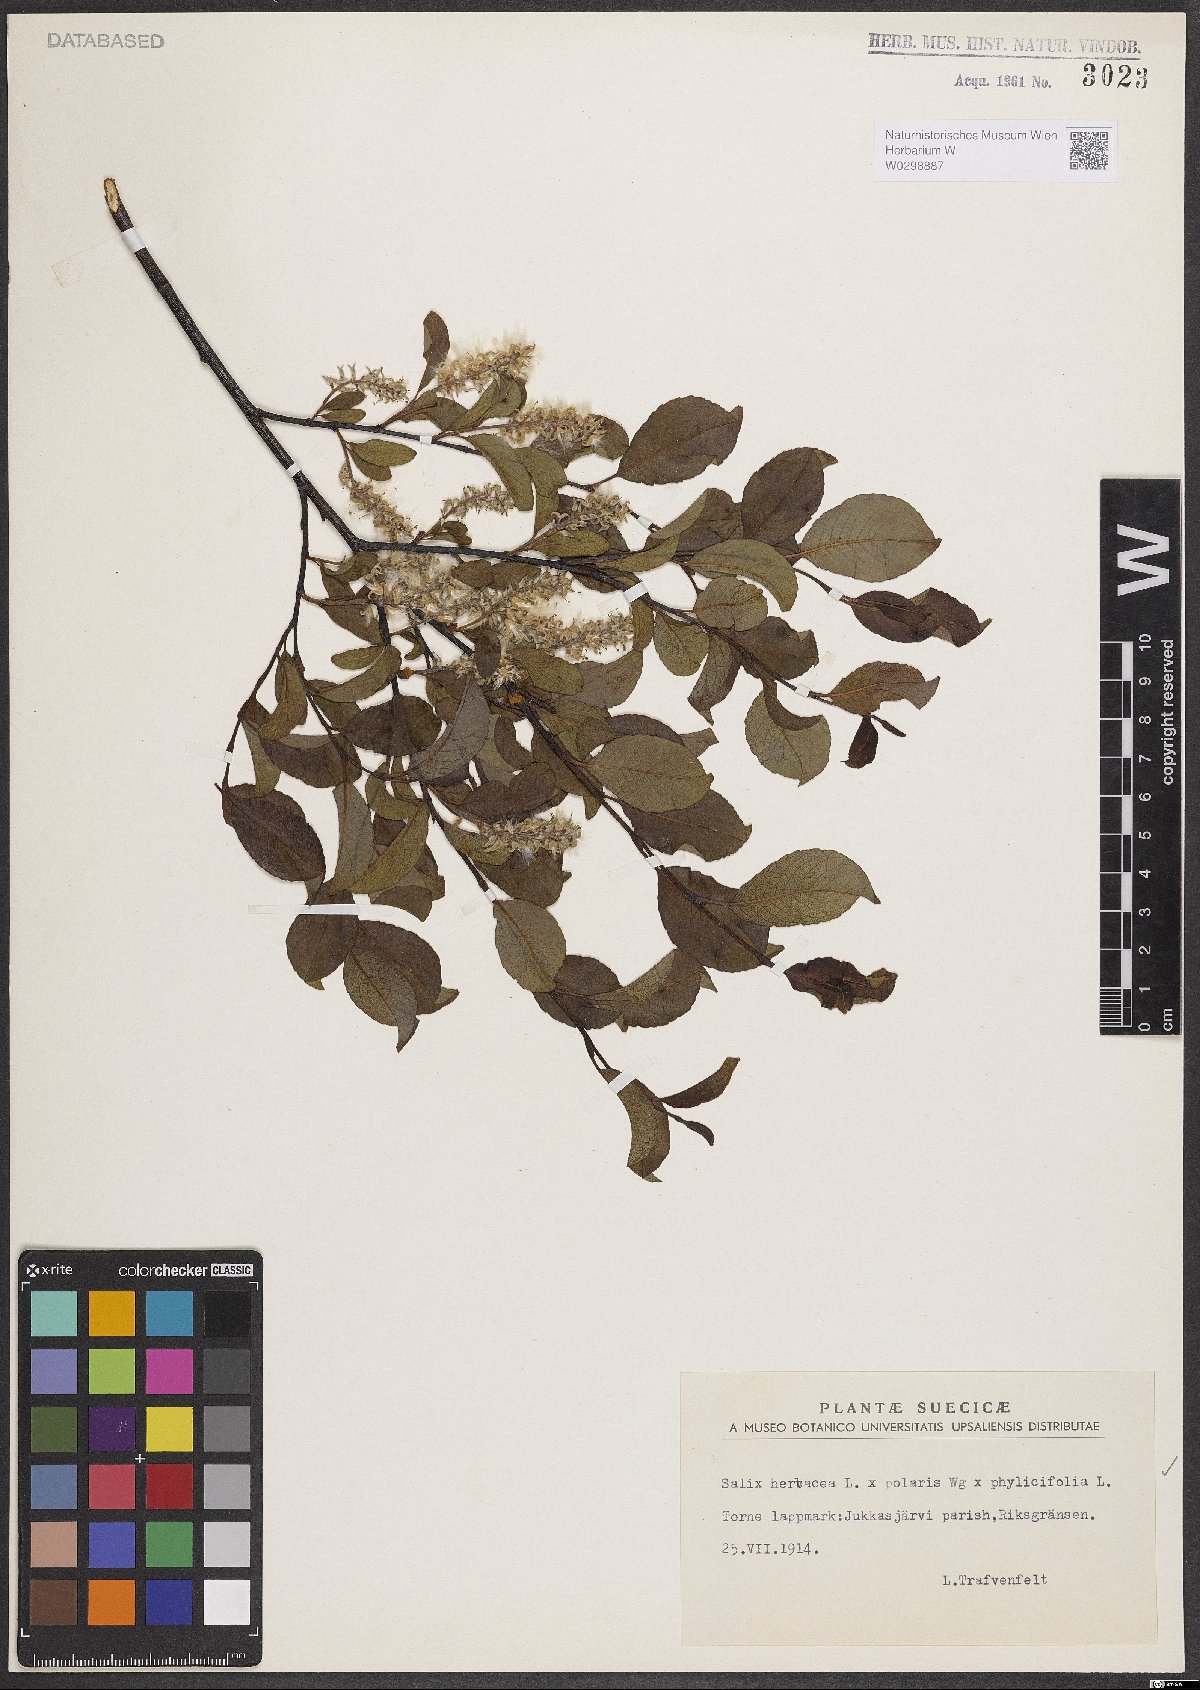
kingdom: Plantae
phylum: Tracheophyta
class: Magnoliopsida
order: Malpighiales
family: Salicaceae
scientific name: Salicaceae
